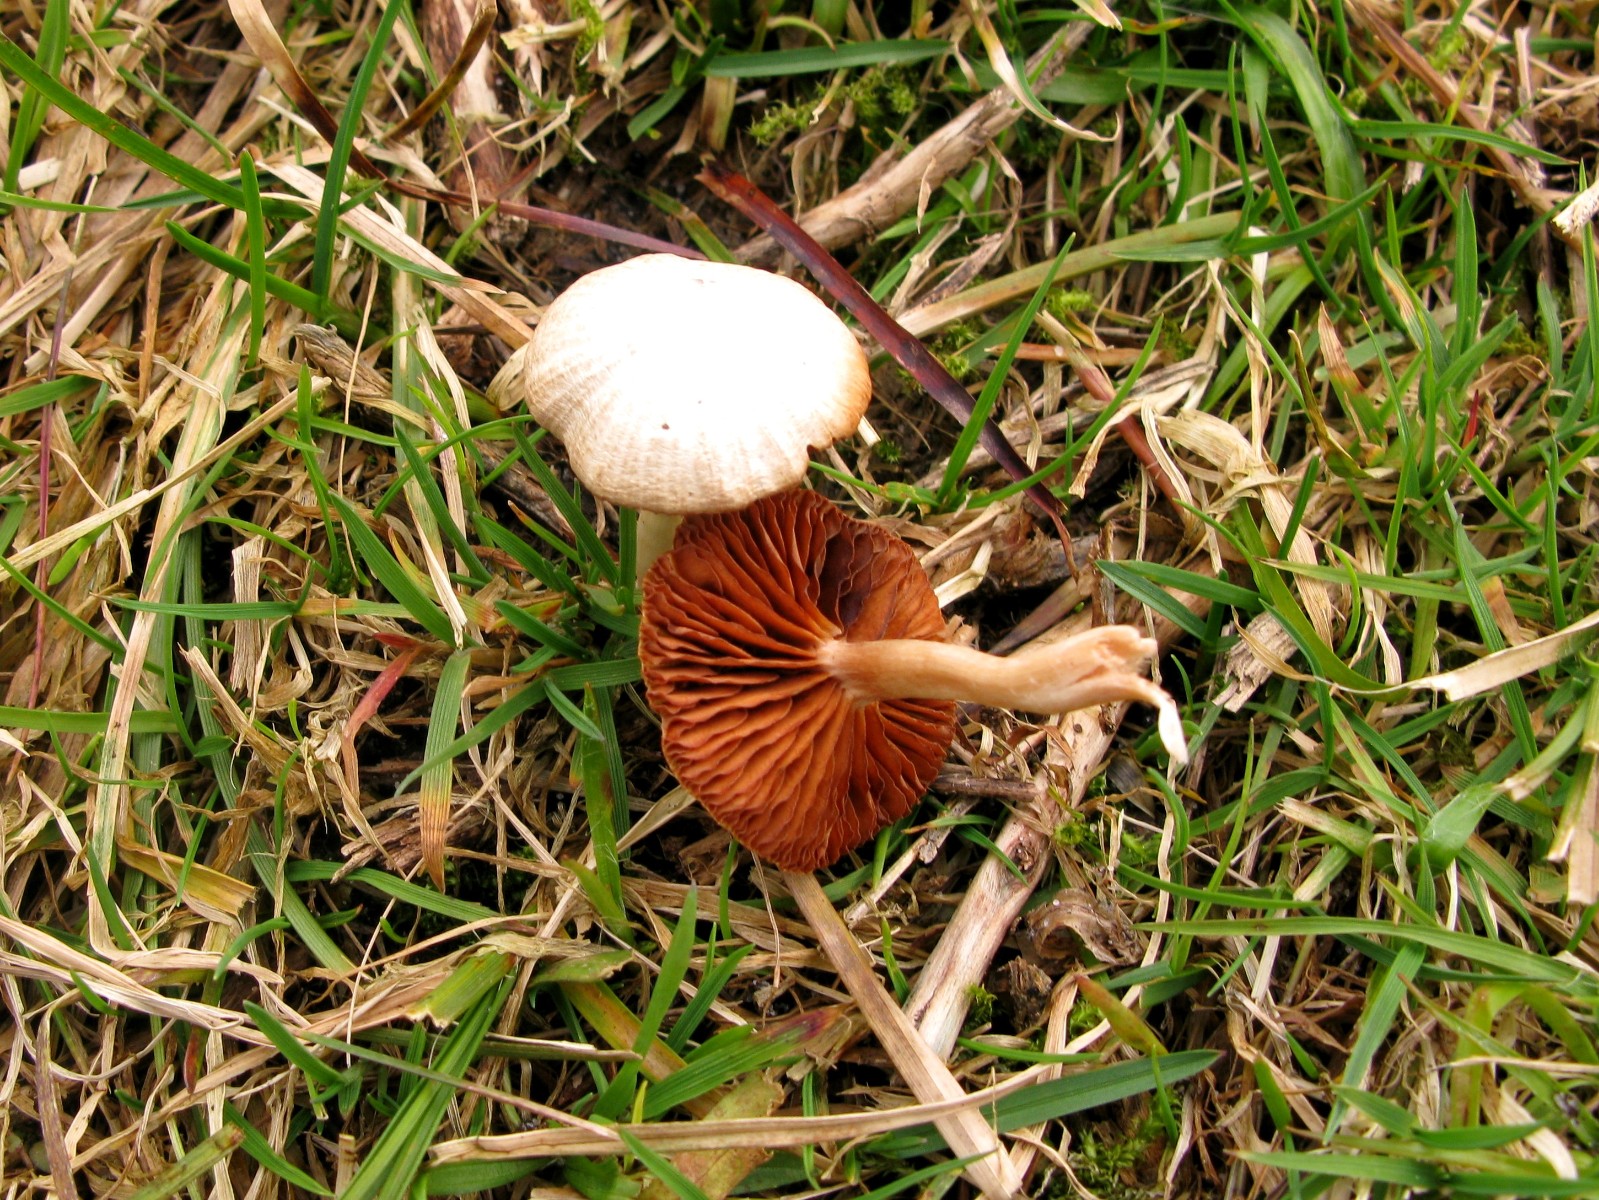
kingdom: Fungi
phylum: Basidiomycota
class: Agaricomycetes
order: Agaricales
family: Tubariaceae
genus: Tubaria
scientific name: Tubaria furfuracea
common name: kliddet fnughat
